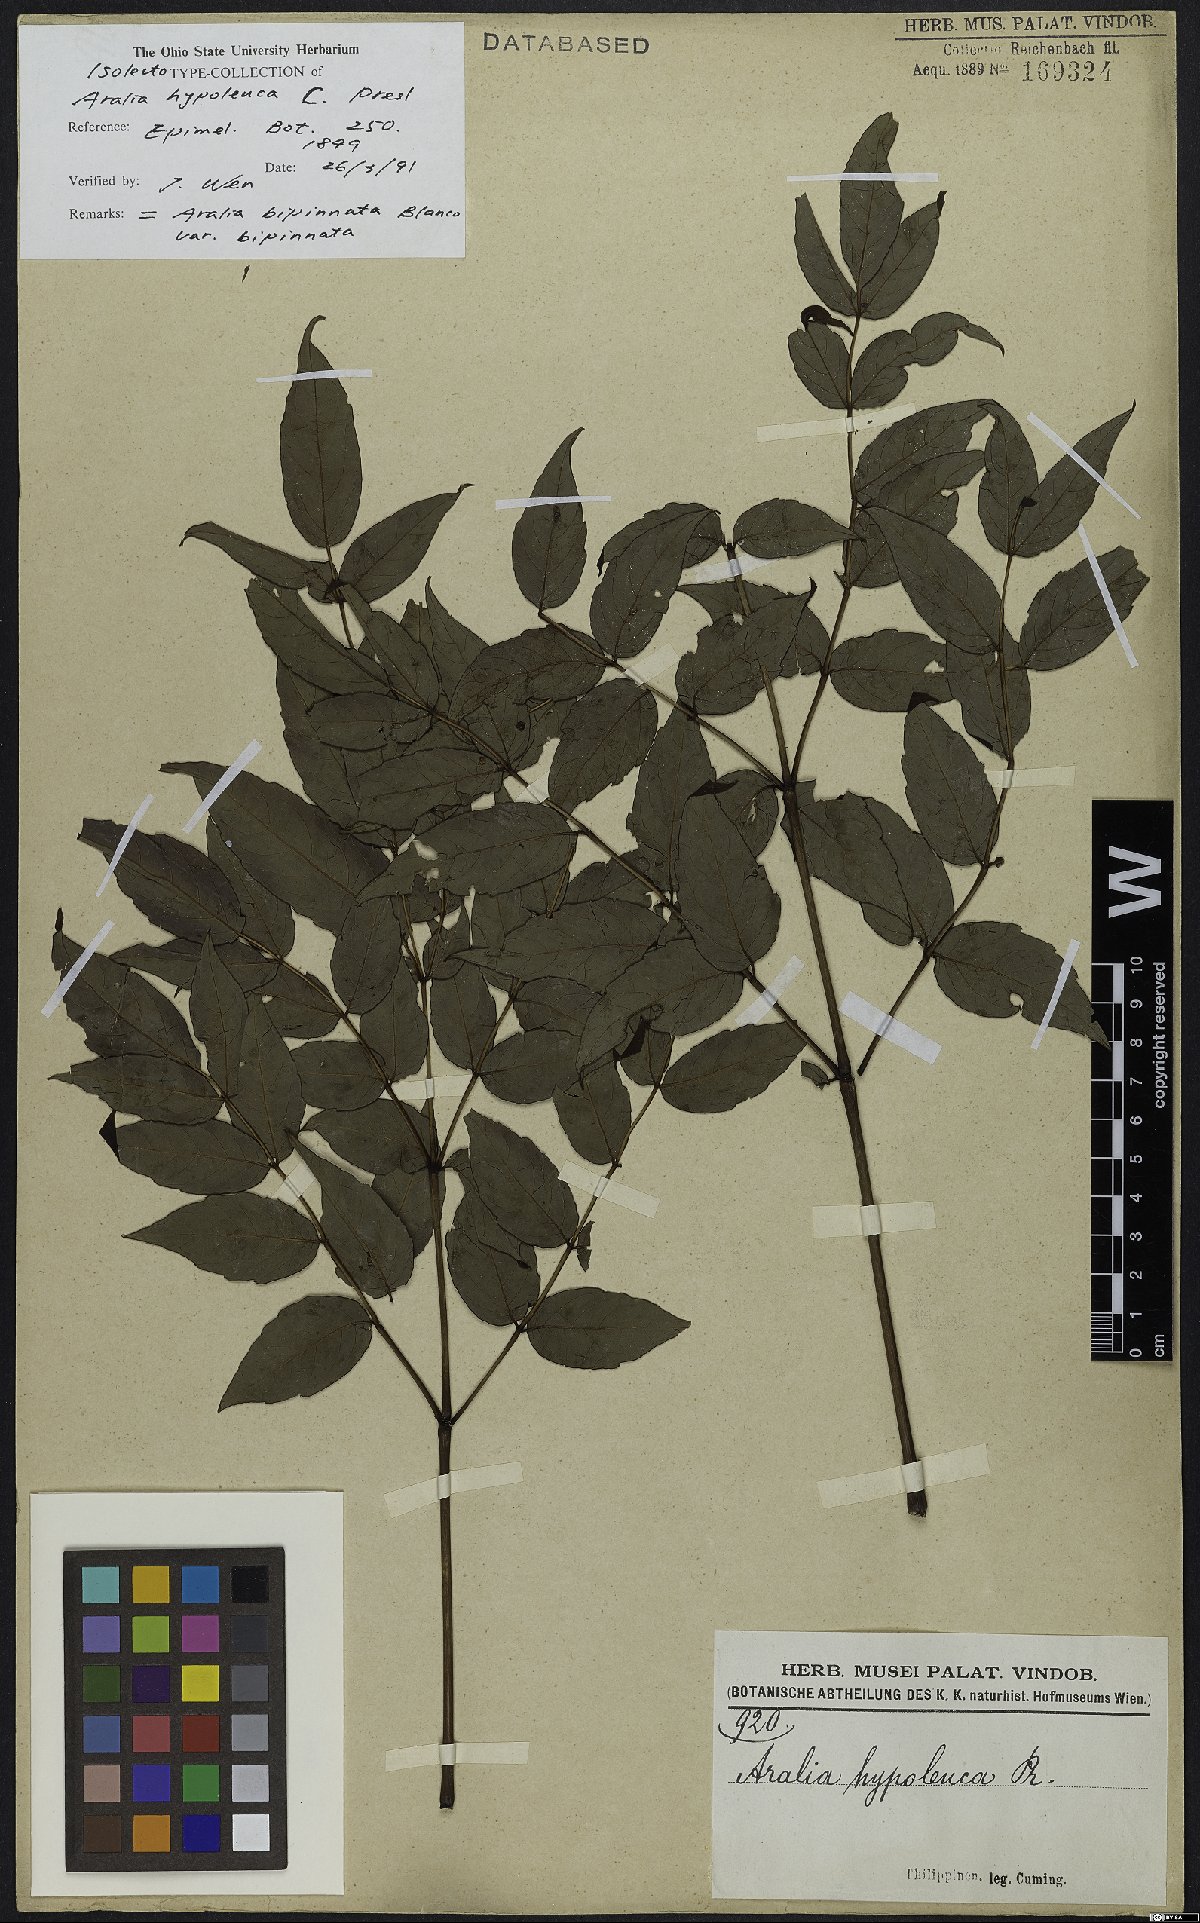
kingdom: Plantae
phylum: Tracheophyta
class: Magnoliopsida
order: Apiales
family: Araliaceae
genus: Aralia
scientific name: Aralia bipinnata
